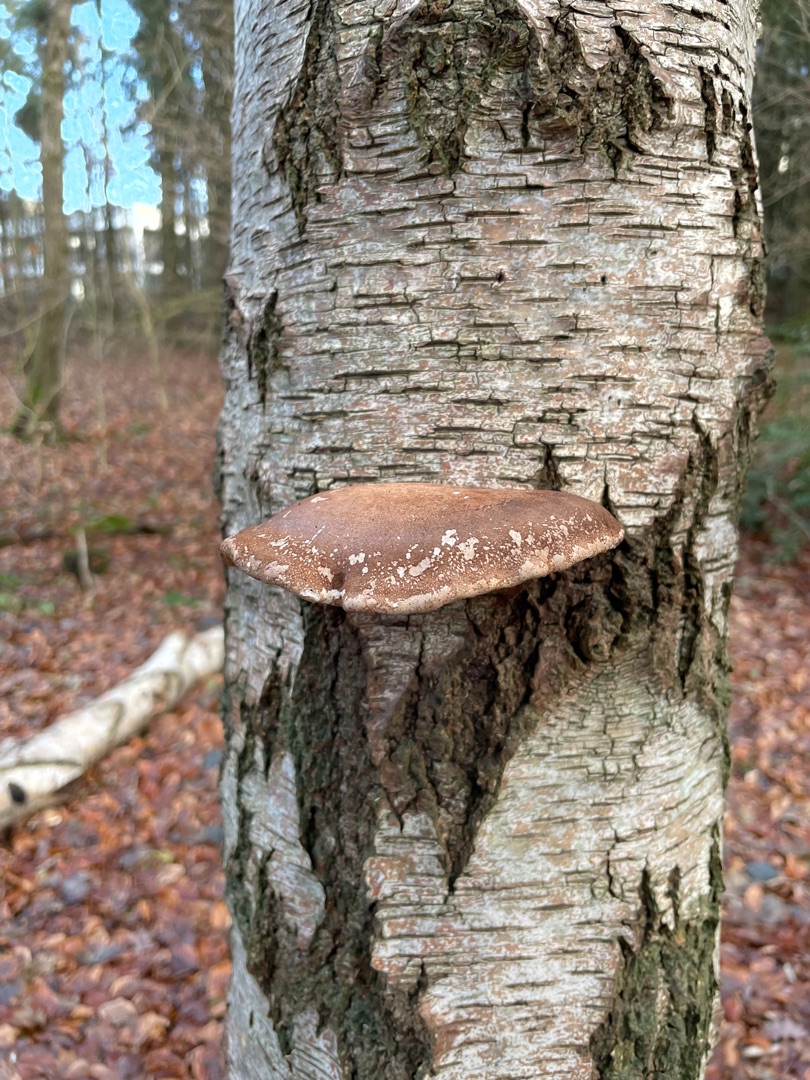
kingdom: Fungi
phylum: Basidiomycota
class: Agaricomycetes
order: Polyporales
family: Fomitopsidaceae
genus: Fomitopsis
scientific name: Fomitopsis betulina
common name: Birkeporesvamp
